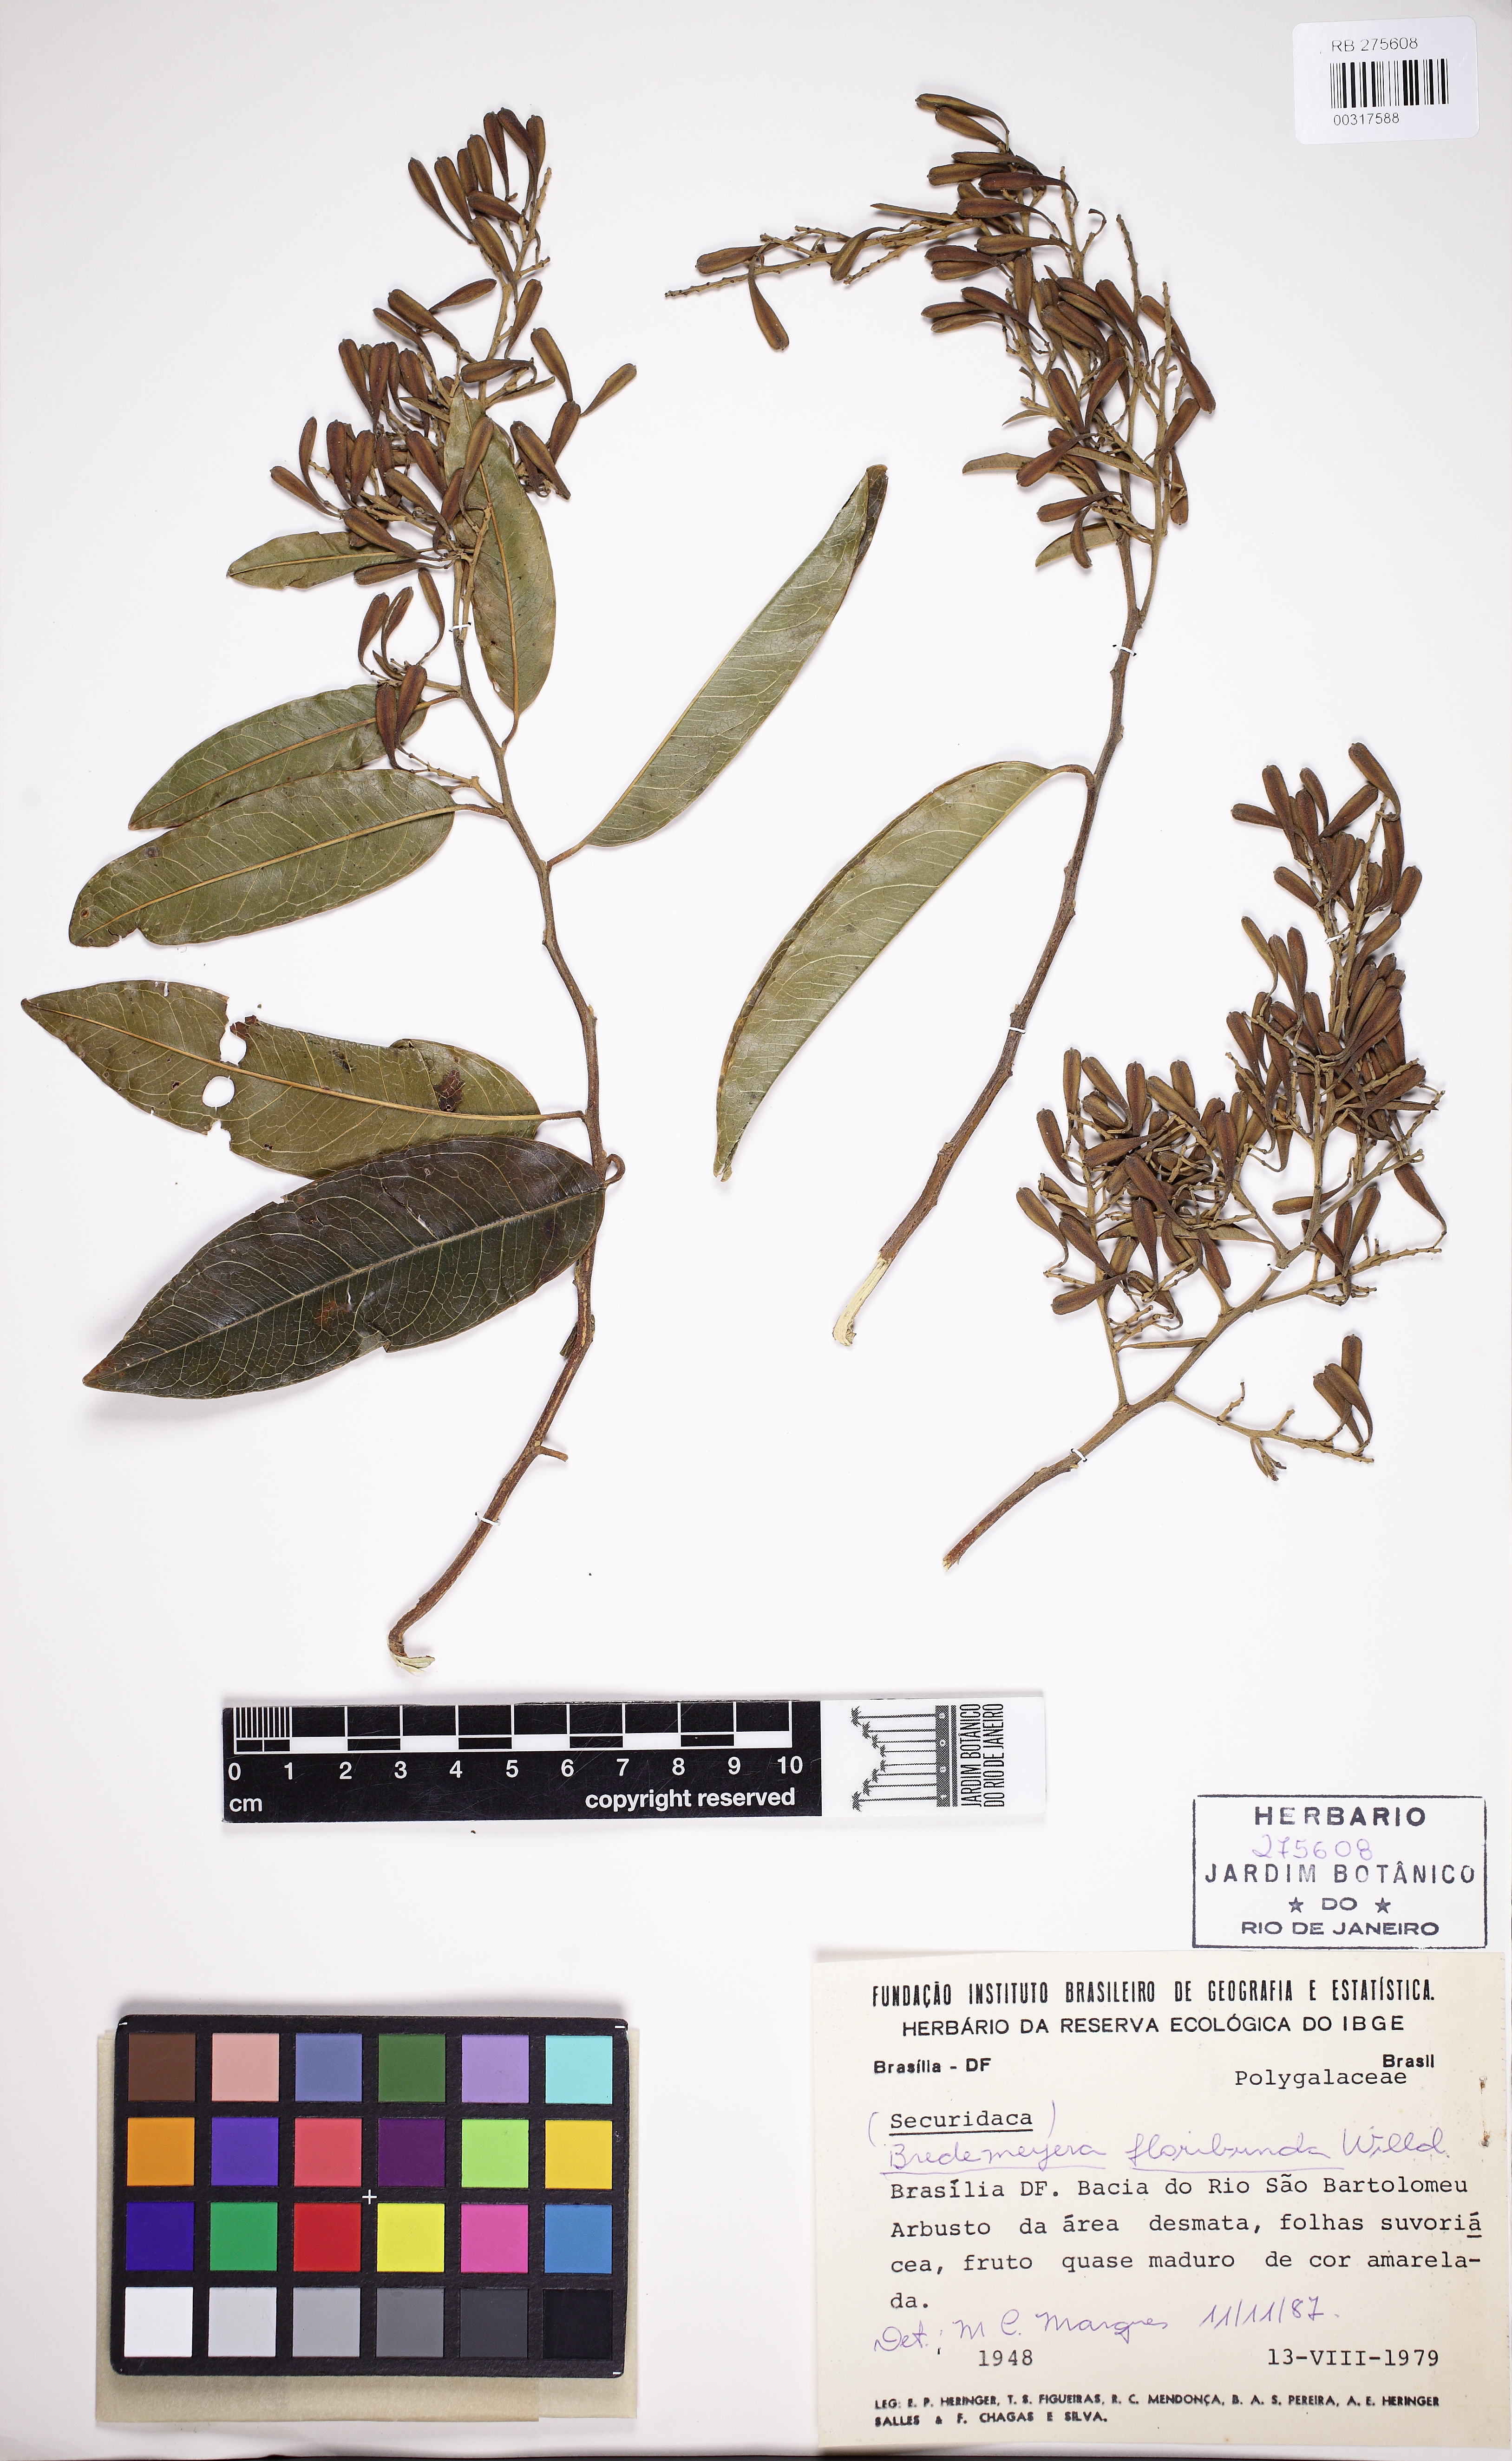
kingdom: Plantae
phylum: Tracheophyta
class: Magnoliopsida
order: Fabales
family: Polygalaceae
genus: Bredemeyera
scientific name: Bredemeyera floribunda
